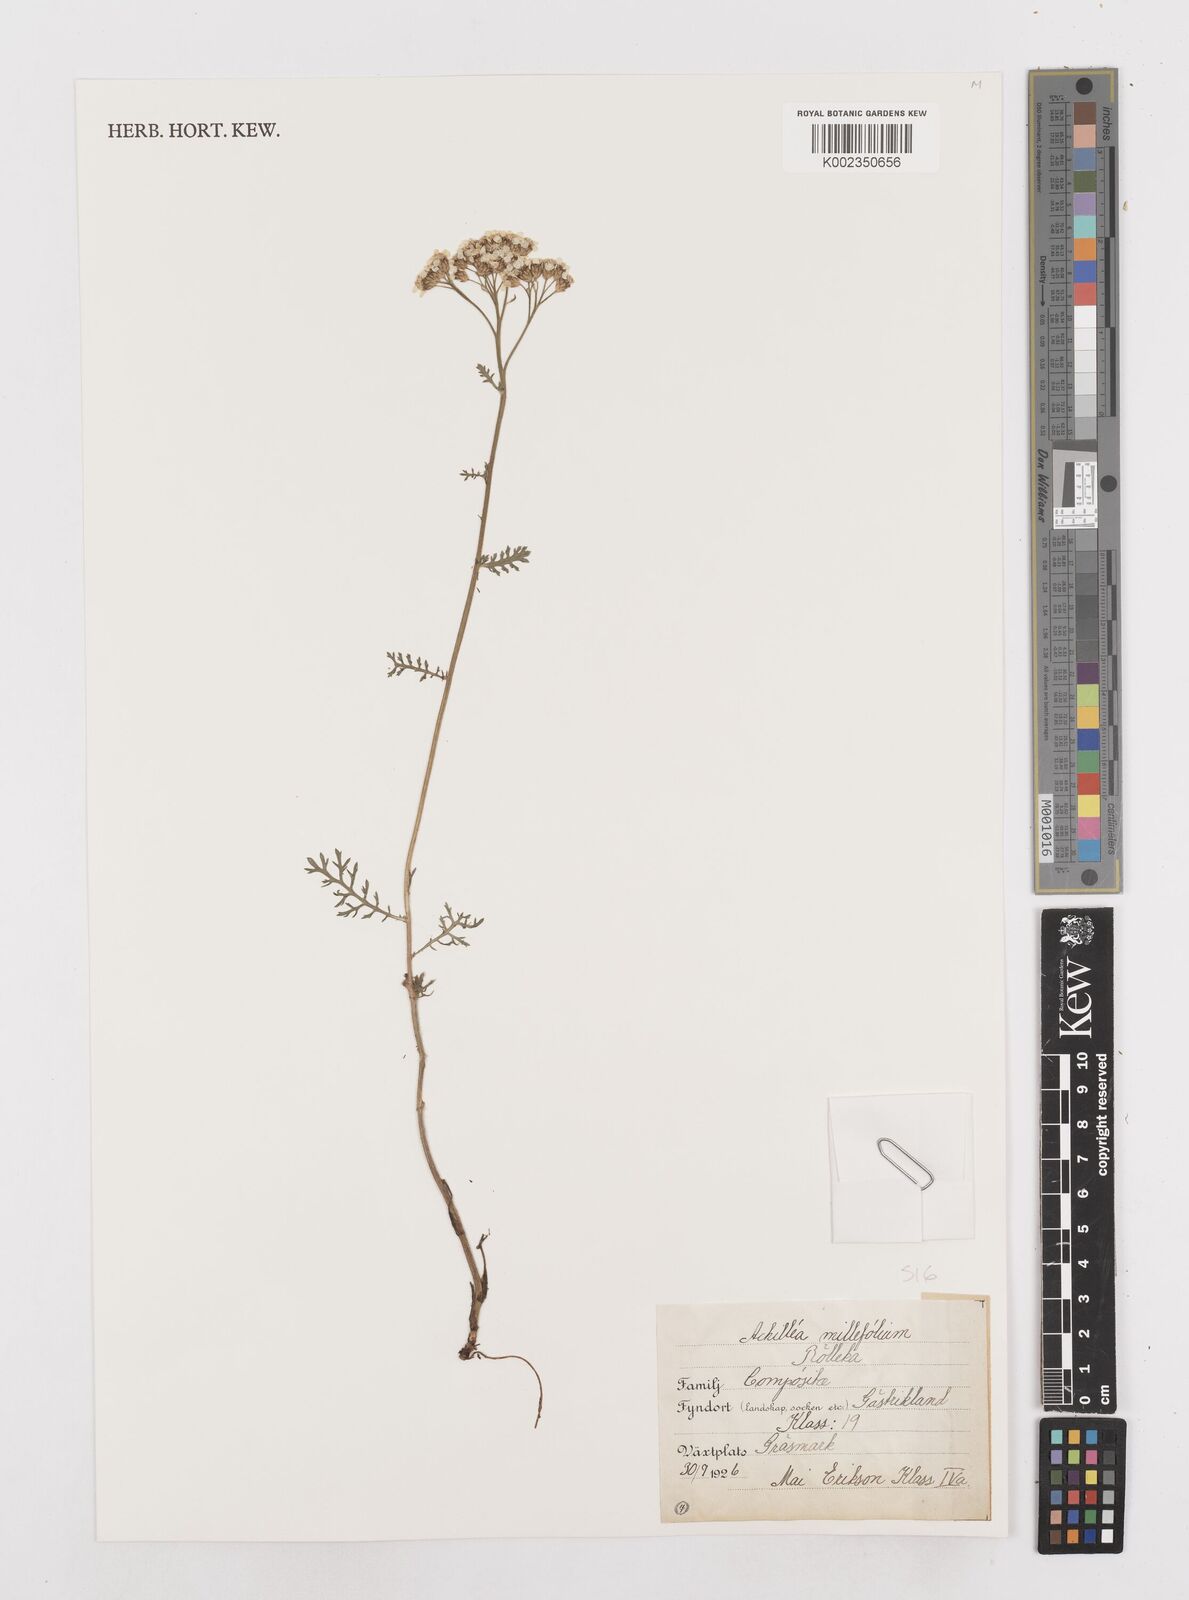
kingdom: Plantae
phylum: Tracheophyta
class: Magnoliopsida
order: Asterales
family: Asteraceae
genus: Achillea
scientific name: Achillea ptarmica
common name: Sneezeweed
